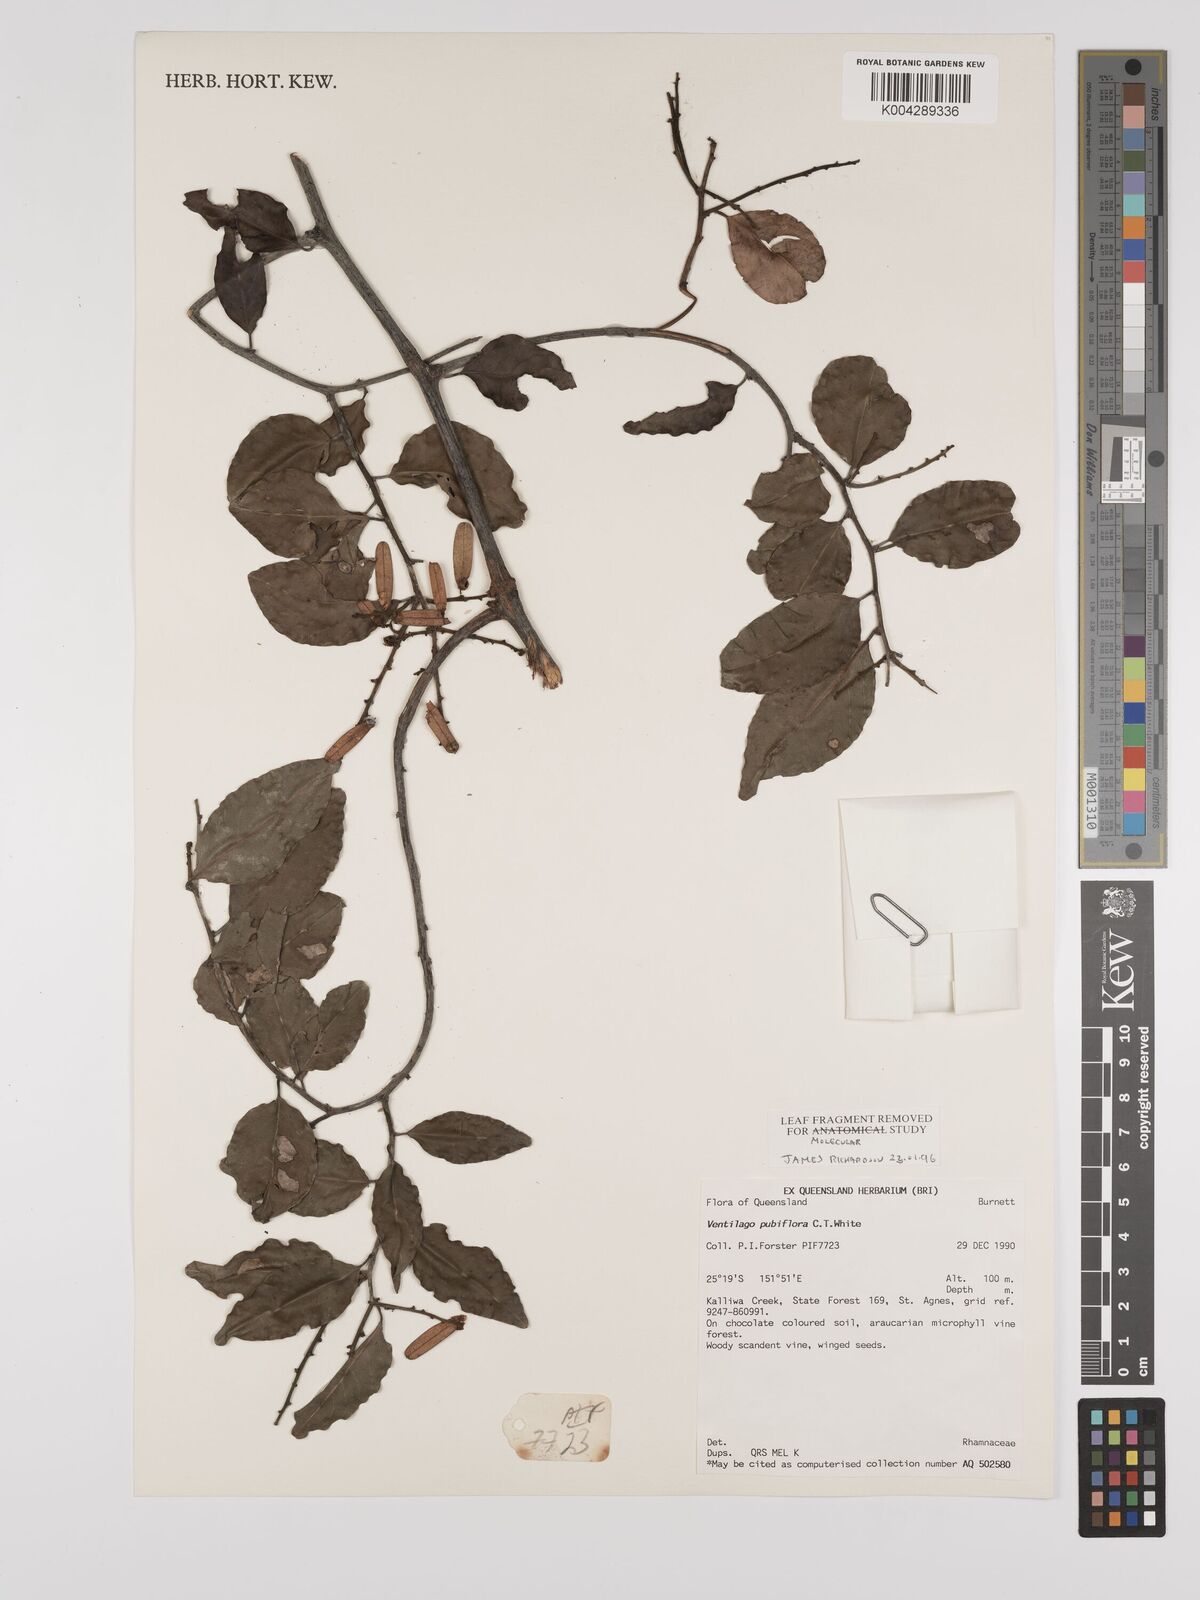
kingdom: Plantae
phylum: Tracheophyta
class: Magnoliopsida
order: Rosales
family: Rhamnaceae
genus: Ventilago
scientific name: Ventilago pubiflora
